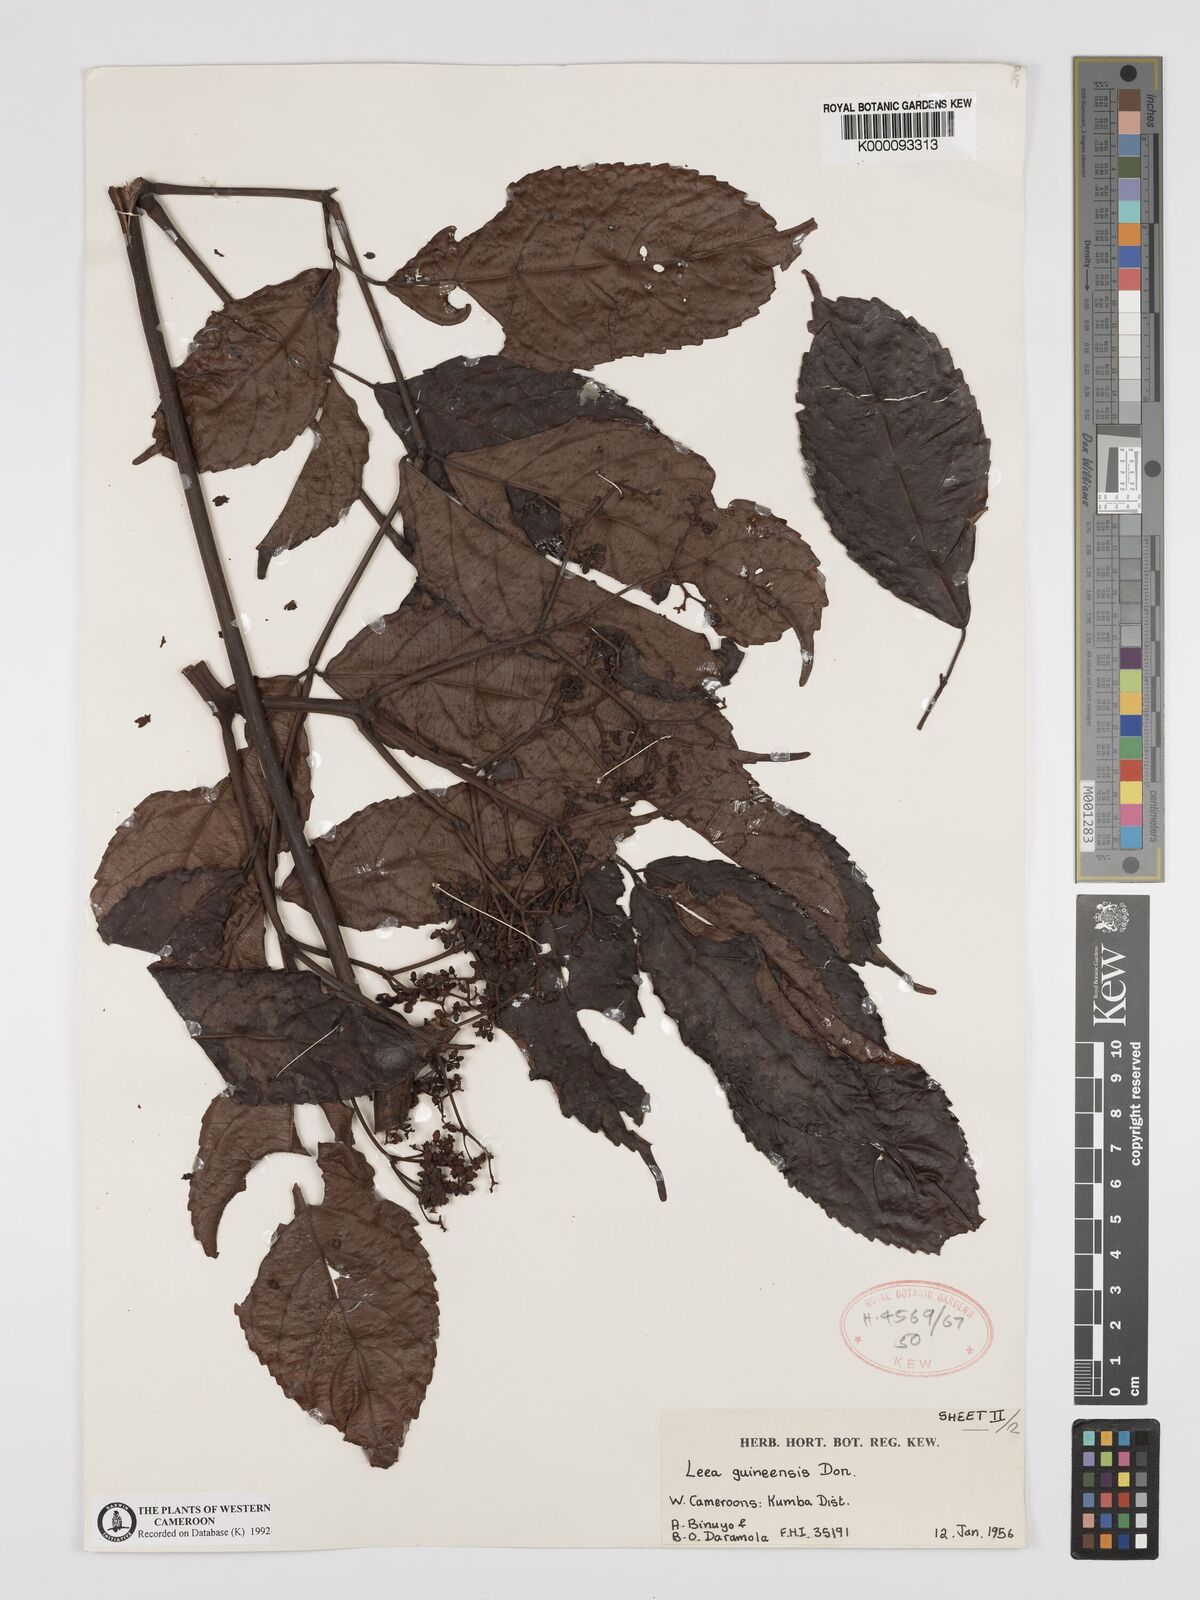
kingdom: Plantae
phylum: Tracheophyta
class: Magnoliopsida
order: Vitales
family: Vitaceae
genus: Leea
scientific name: Leea guineensis
